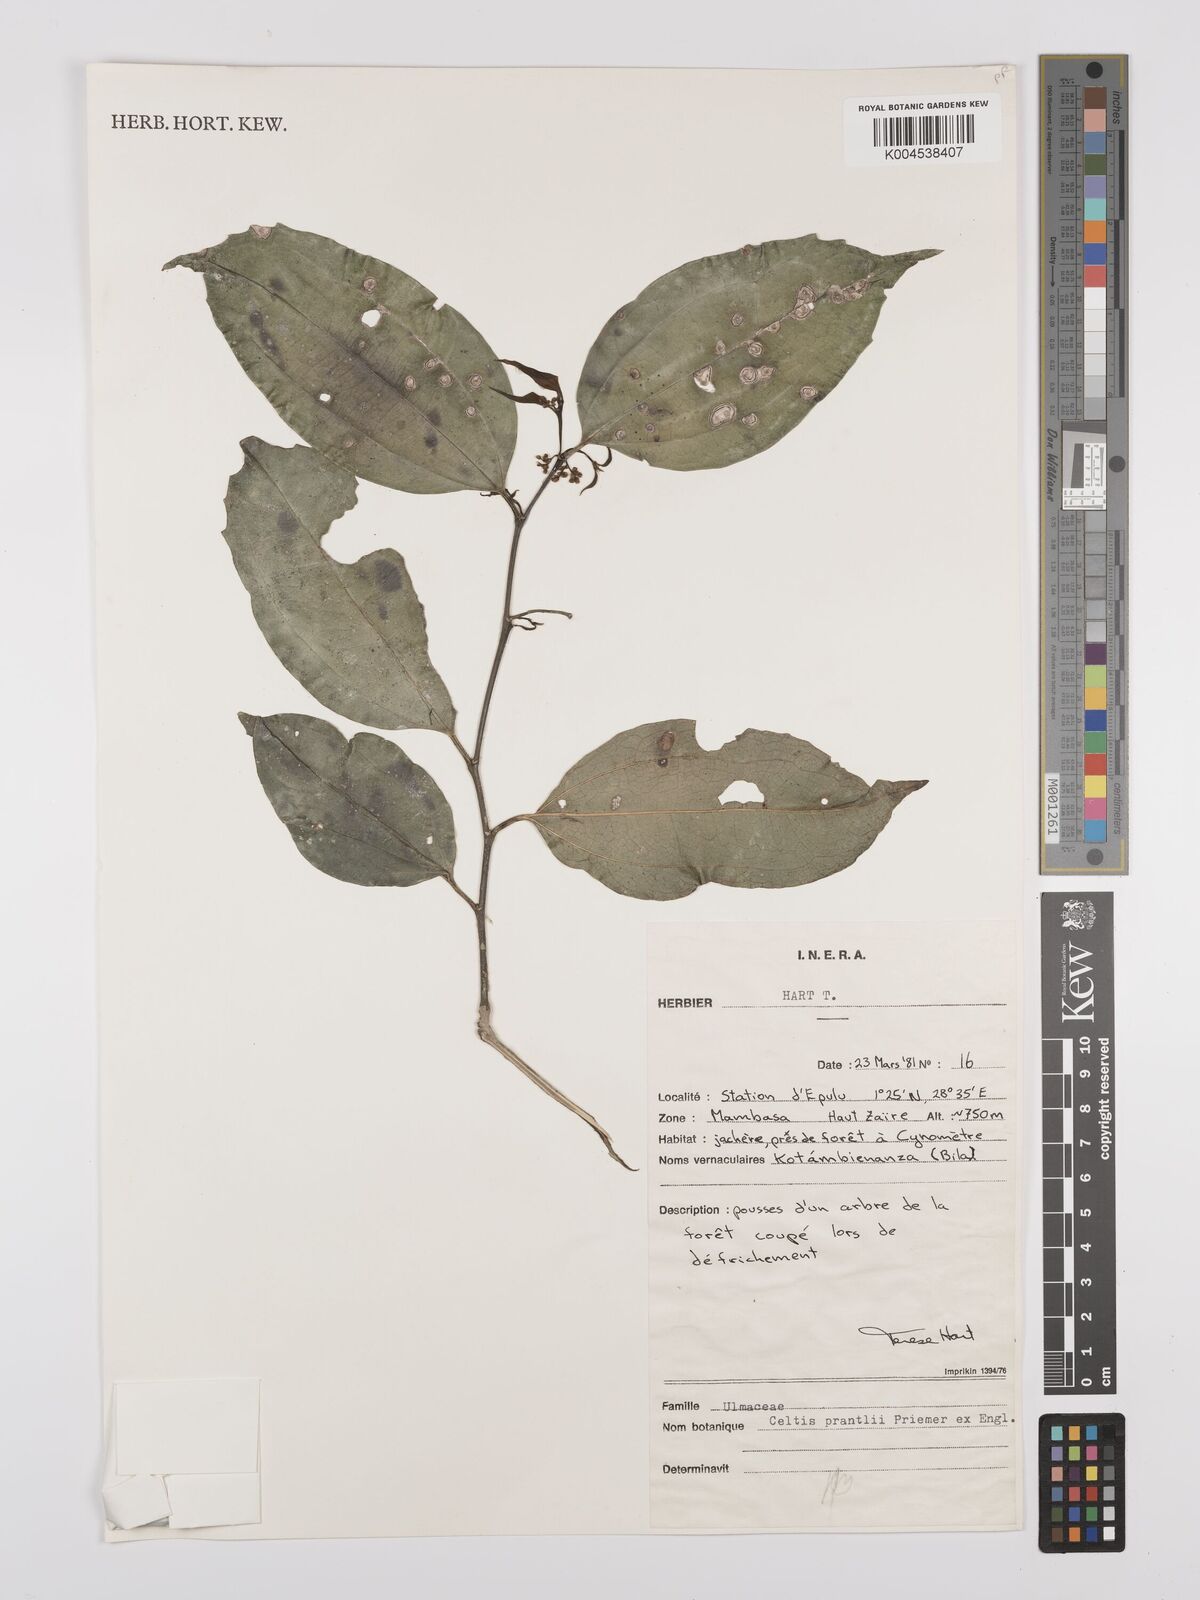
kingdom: Plantae
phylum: Tracheophyta
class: Magnoliopsida
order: Rosales
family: Cannabaceae
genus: Celtis
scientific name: Celtis philippensis
